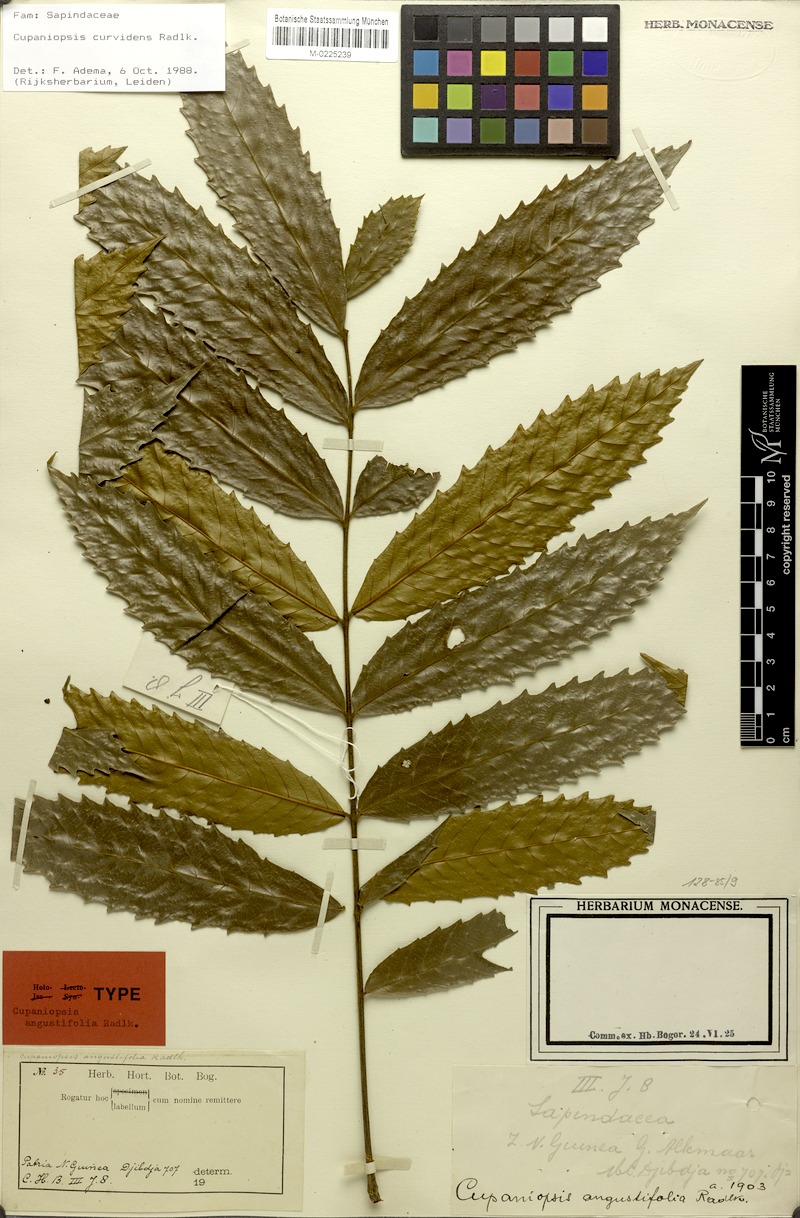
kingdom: Plantae
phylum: Tracheophyta
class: Magnoliopsida
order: Sapindales
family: Sapindaceae
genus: Cupaniopsis
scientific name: Cupaniopsis curvidens
